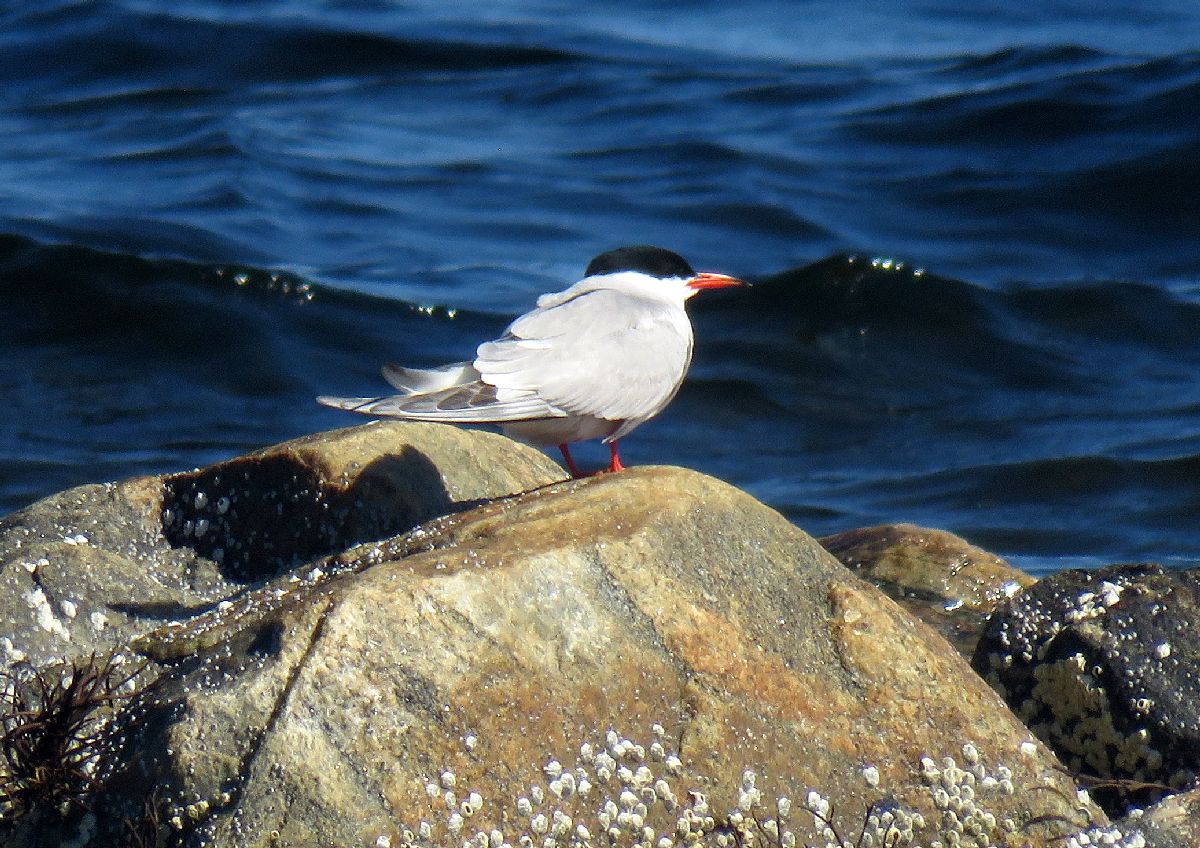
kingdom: Animalia
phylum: Chordata
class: Aves
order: Charadriiformes
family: Laridae
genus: Sterna
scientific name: Sterna hirundo
